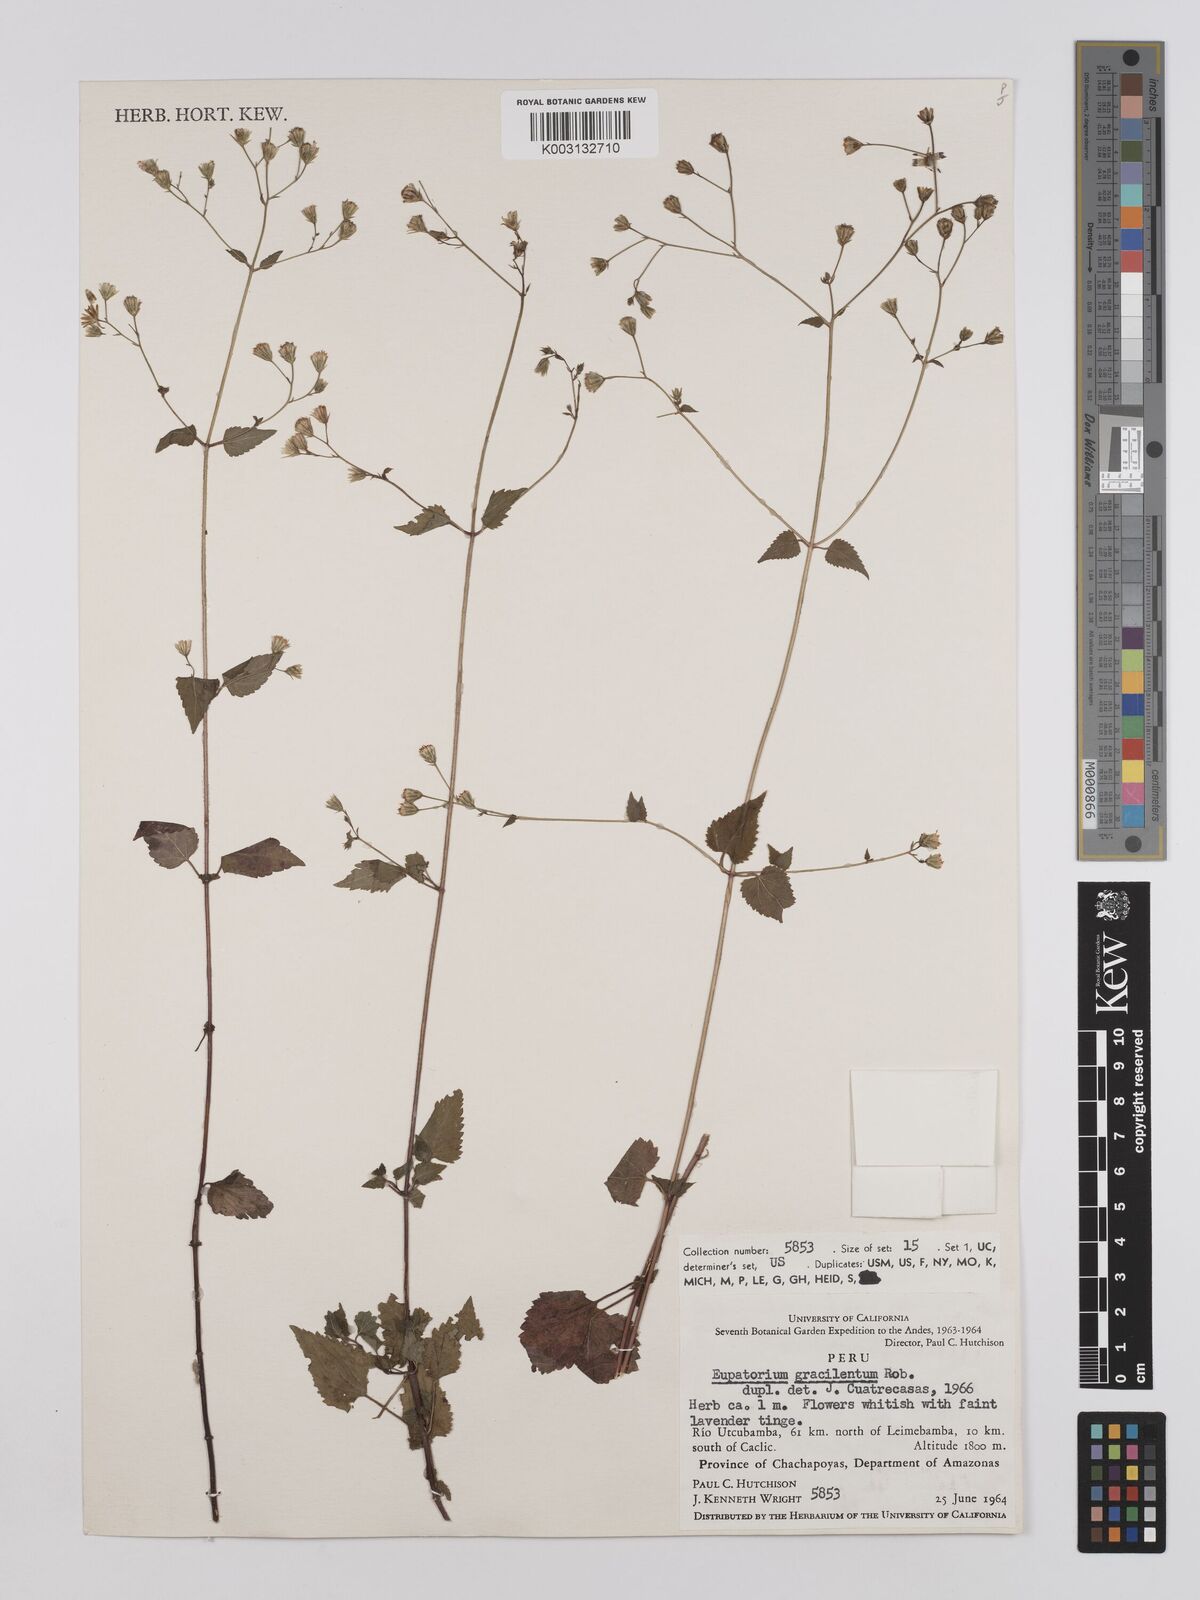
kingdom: Plantae
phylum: Tracheophyta
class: Magnoliopsida
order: Asterales
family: Asteraceae
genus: Ageratina
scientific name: Ageratina gracilenta
